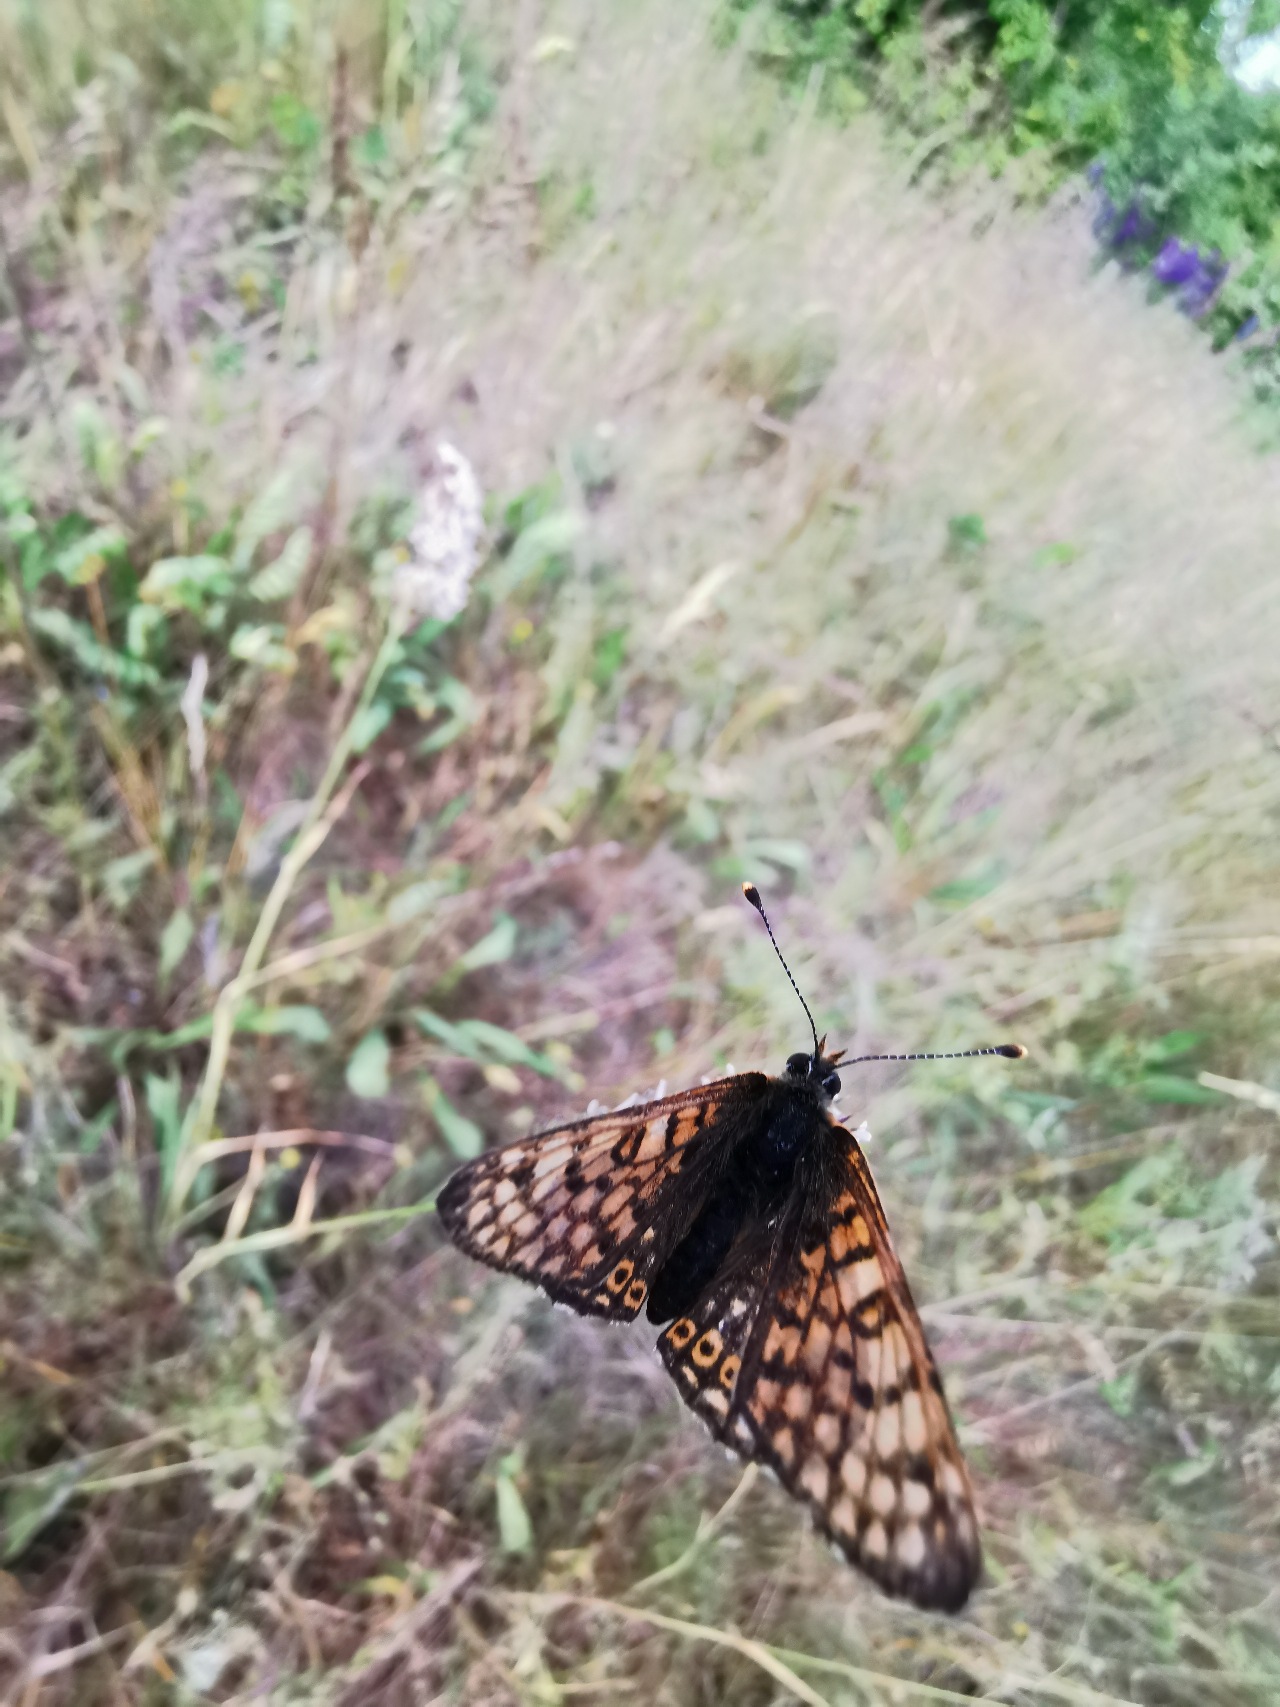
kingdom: Animalia
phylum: Arthropoda
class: Insecta
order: Lepidoptera
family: Nymphalidae
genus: Melitaea
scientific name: Melitaea cinxia
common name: Okkergul pletvinge
